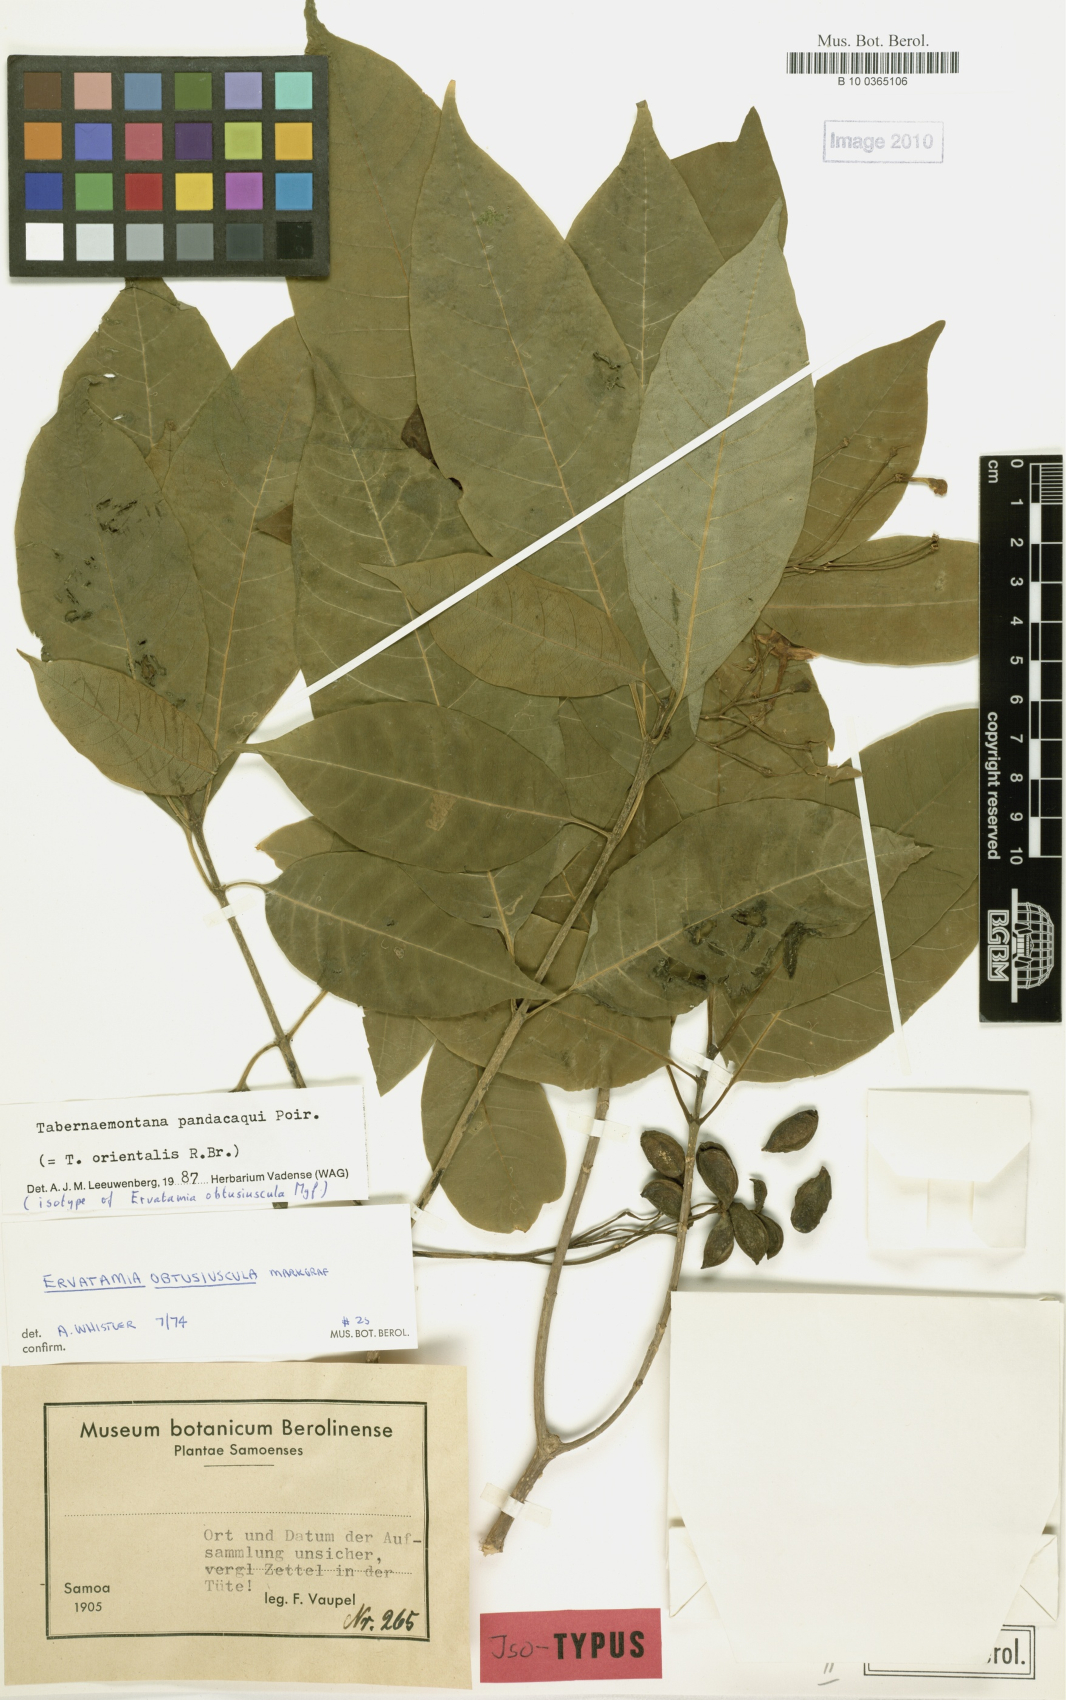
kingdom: Plantae
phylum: Tracheophyta
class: Magnoliopsida
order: Gentianales
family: Apocynaceae
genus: Tabernaemontana
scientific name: Tabernaemontana pandacaqui
